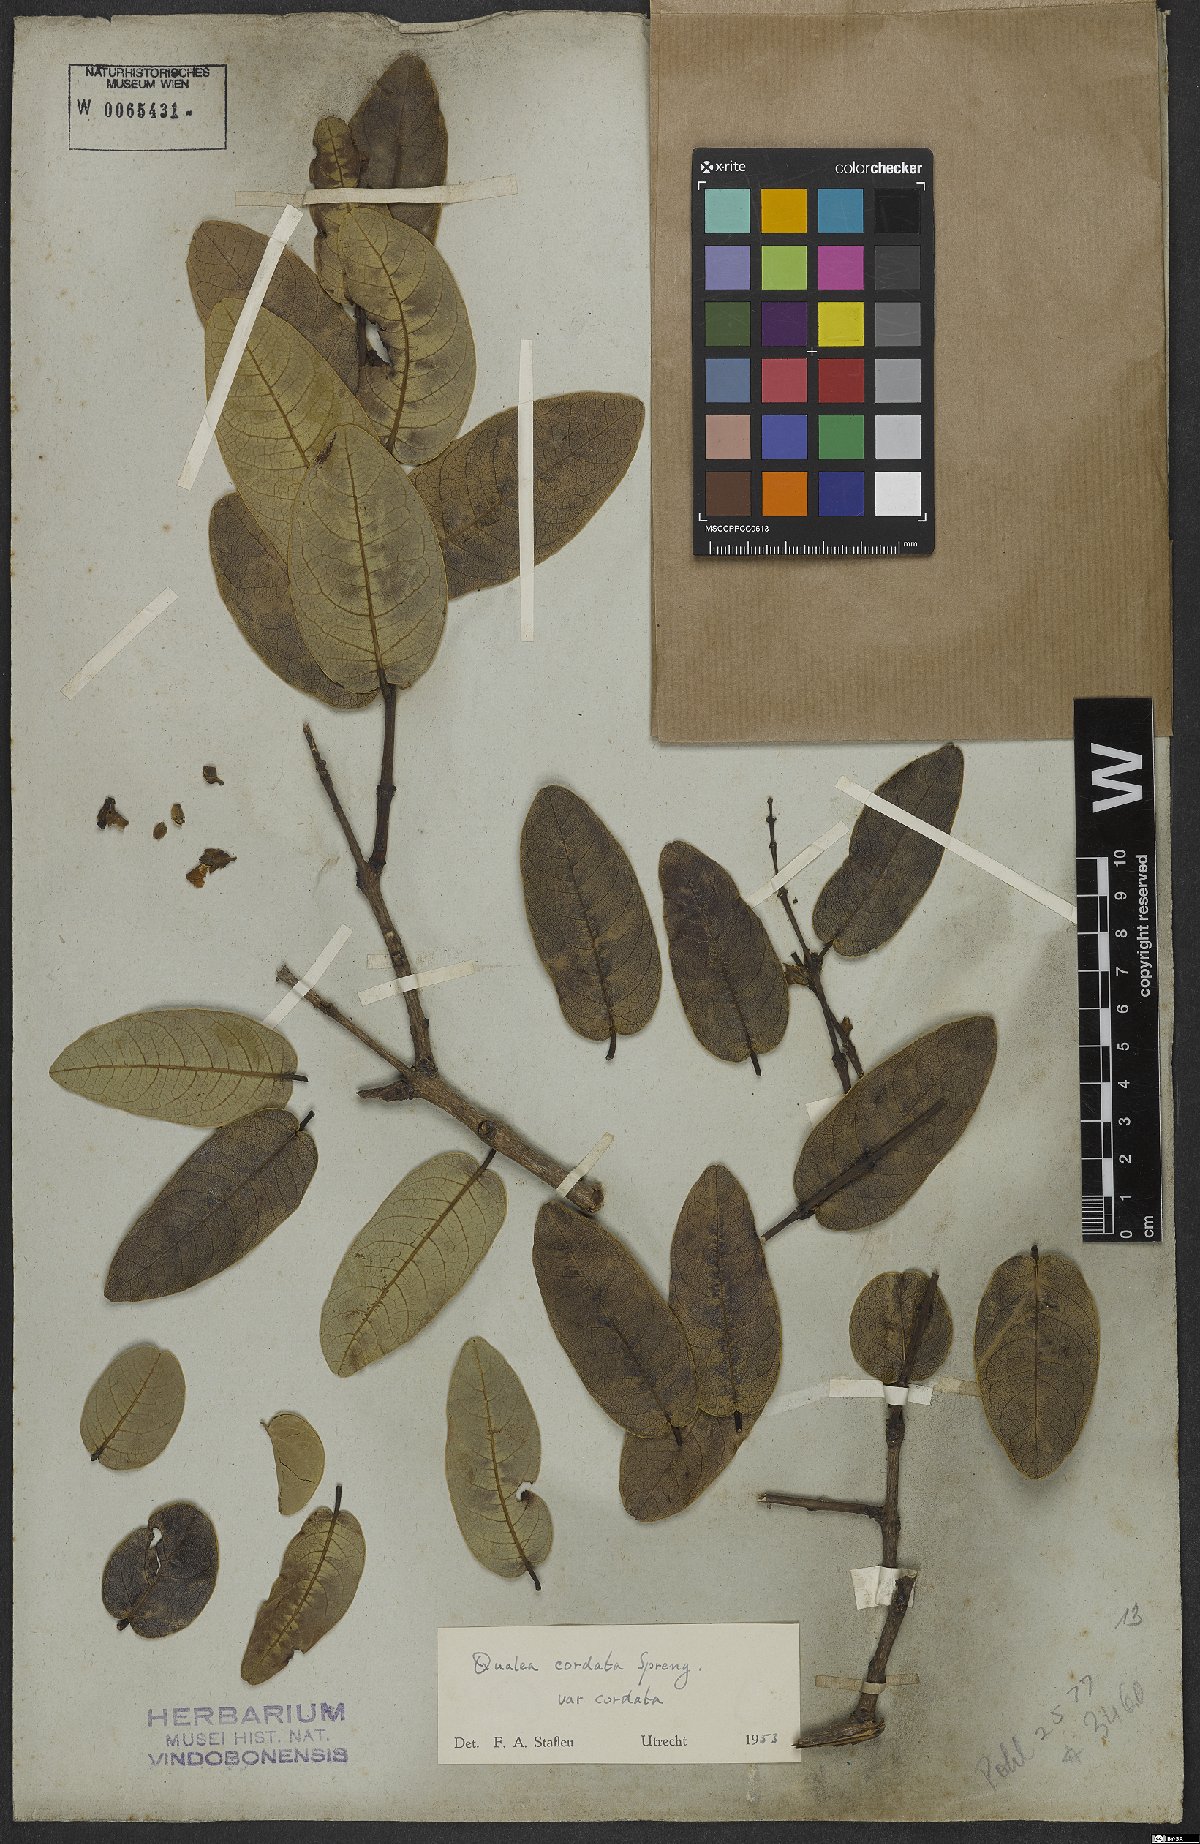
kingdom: Plantae
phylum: Tracheophyta
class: Magnoliopsida
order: Myrtales
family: Vochysiaceae
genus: Qualea
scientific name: Qualea cordata
